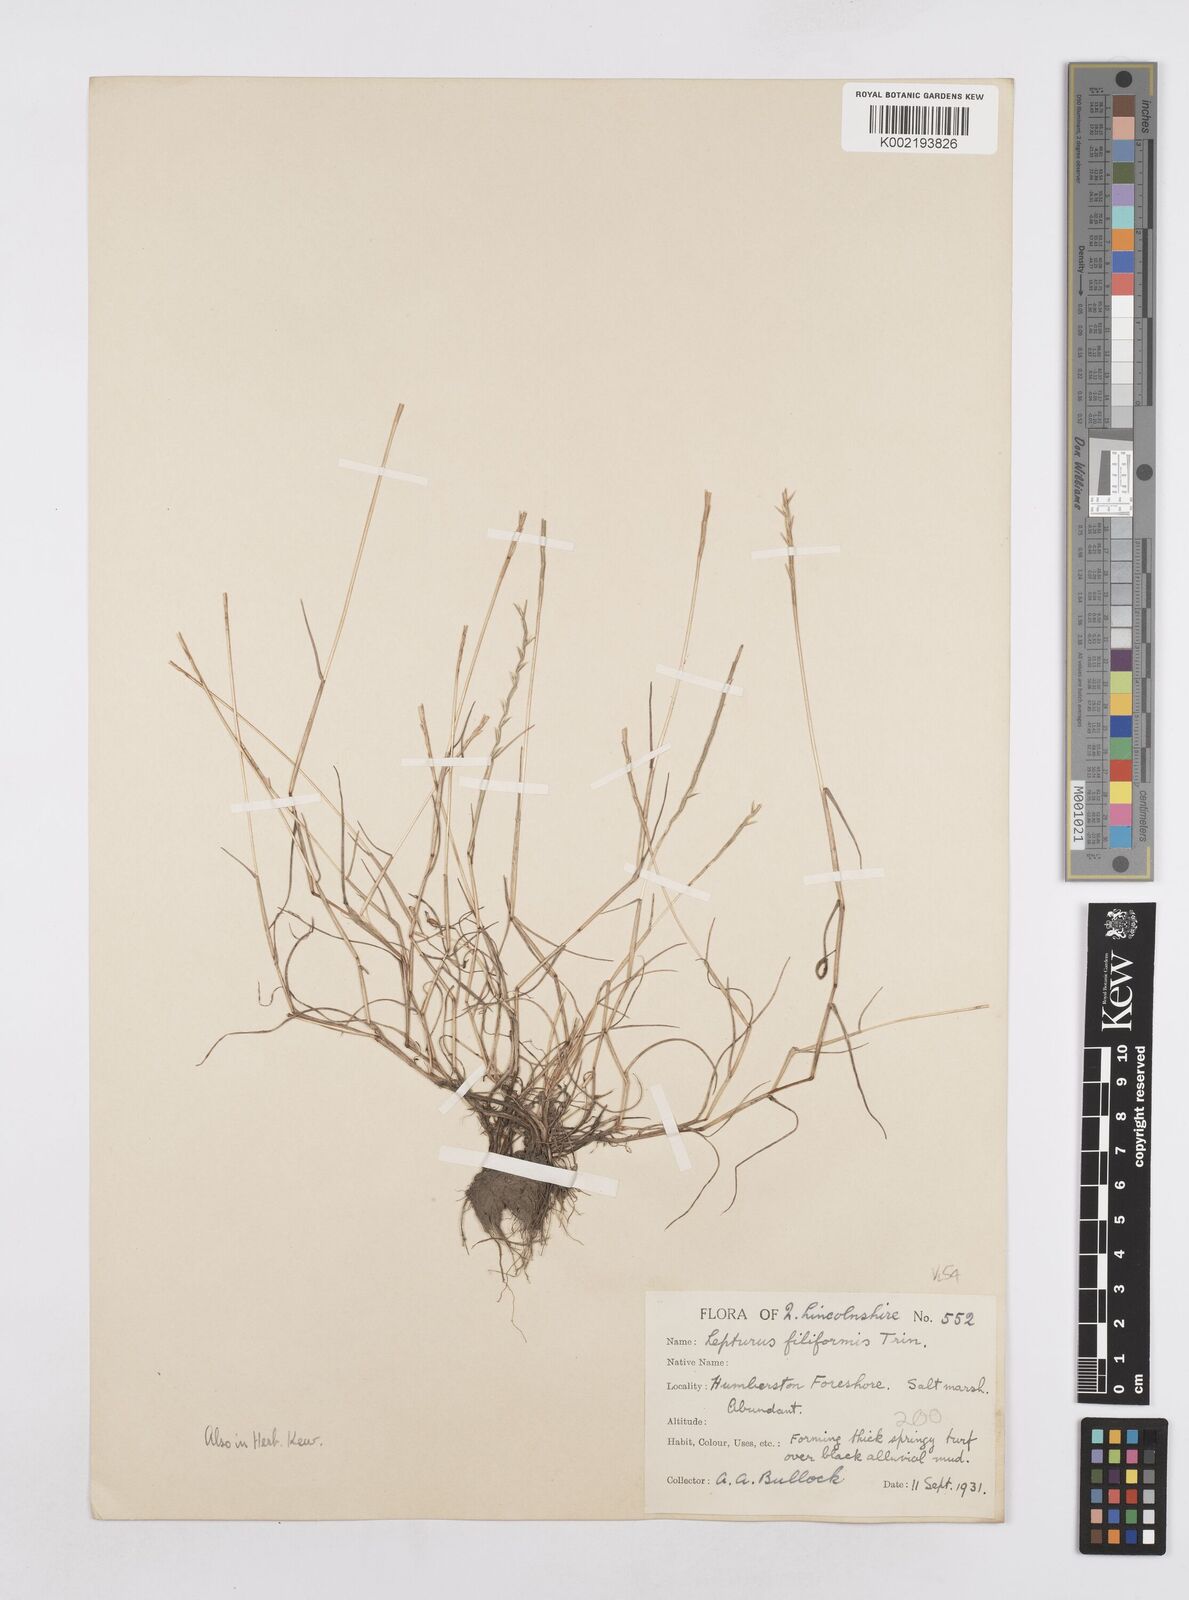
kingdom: Plantae
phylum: Tracheophyta
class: Liliopsida
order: Poales
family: Poaceae
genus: Parapholis
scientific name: Parapholis strigosa
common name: Hard-grass
